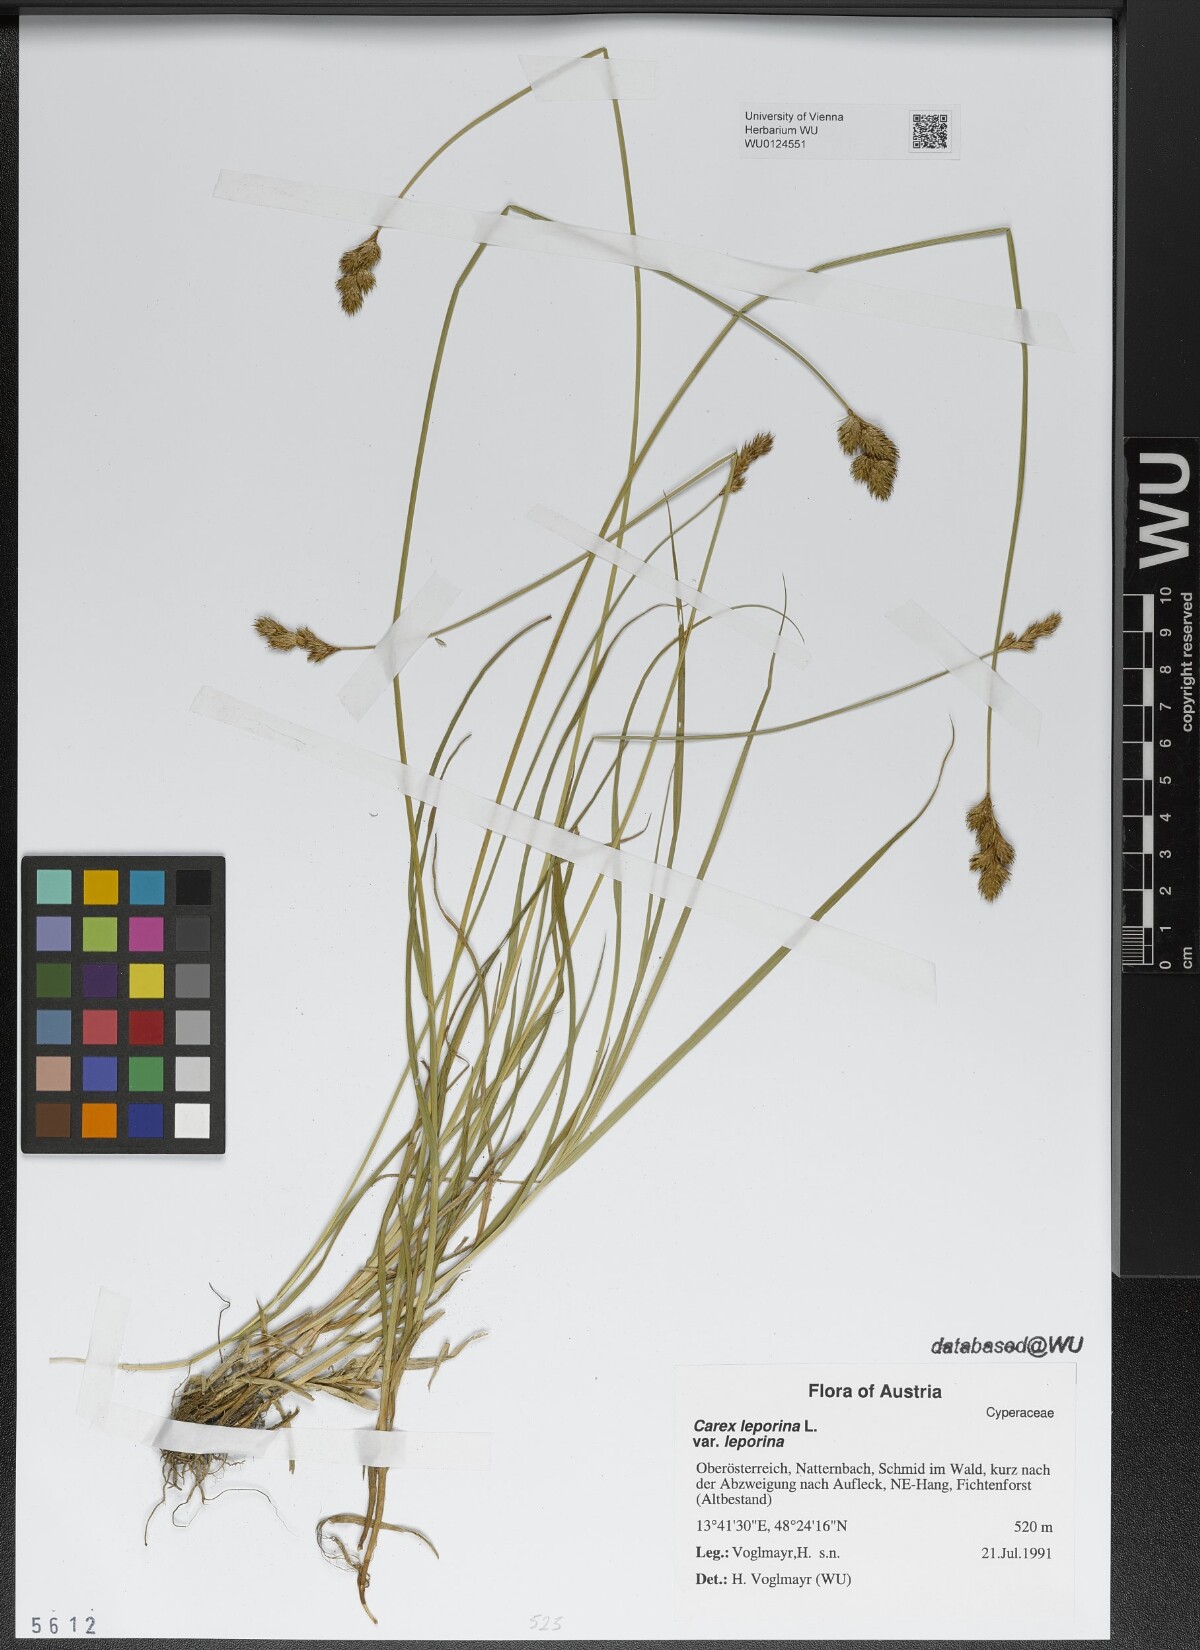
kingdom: Plantae
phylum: Tracheophyta
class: Liliopsida
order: Poales
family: Cyperaceae
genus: Carex
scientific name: Carex leporina
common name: Oval sedge
